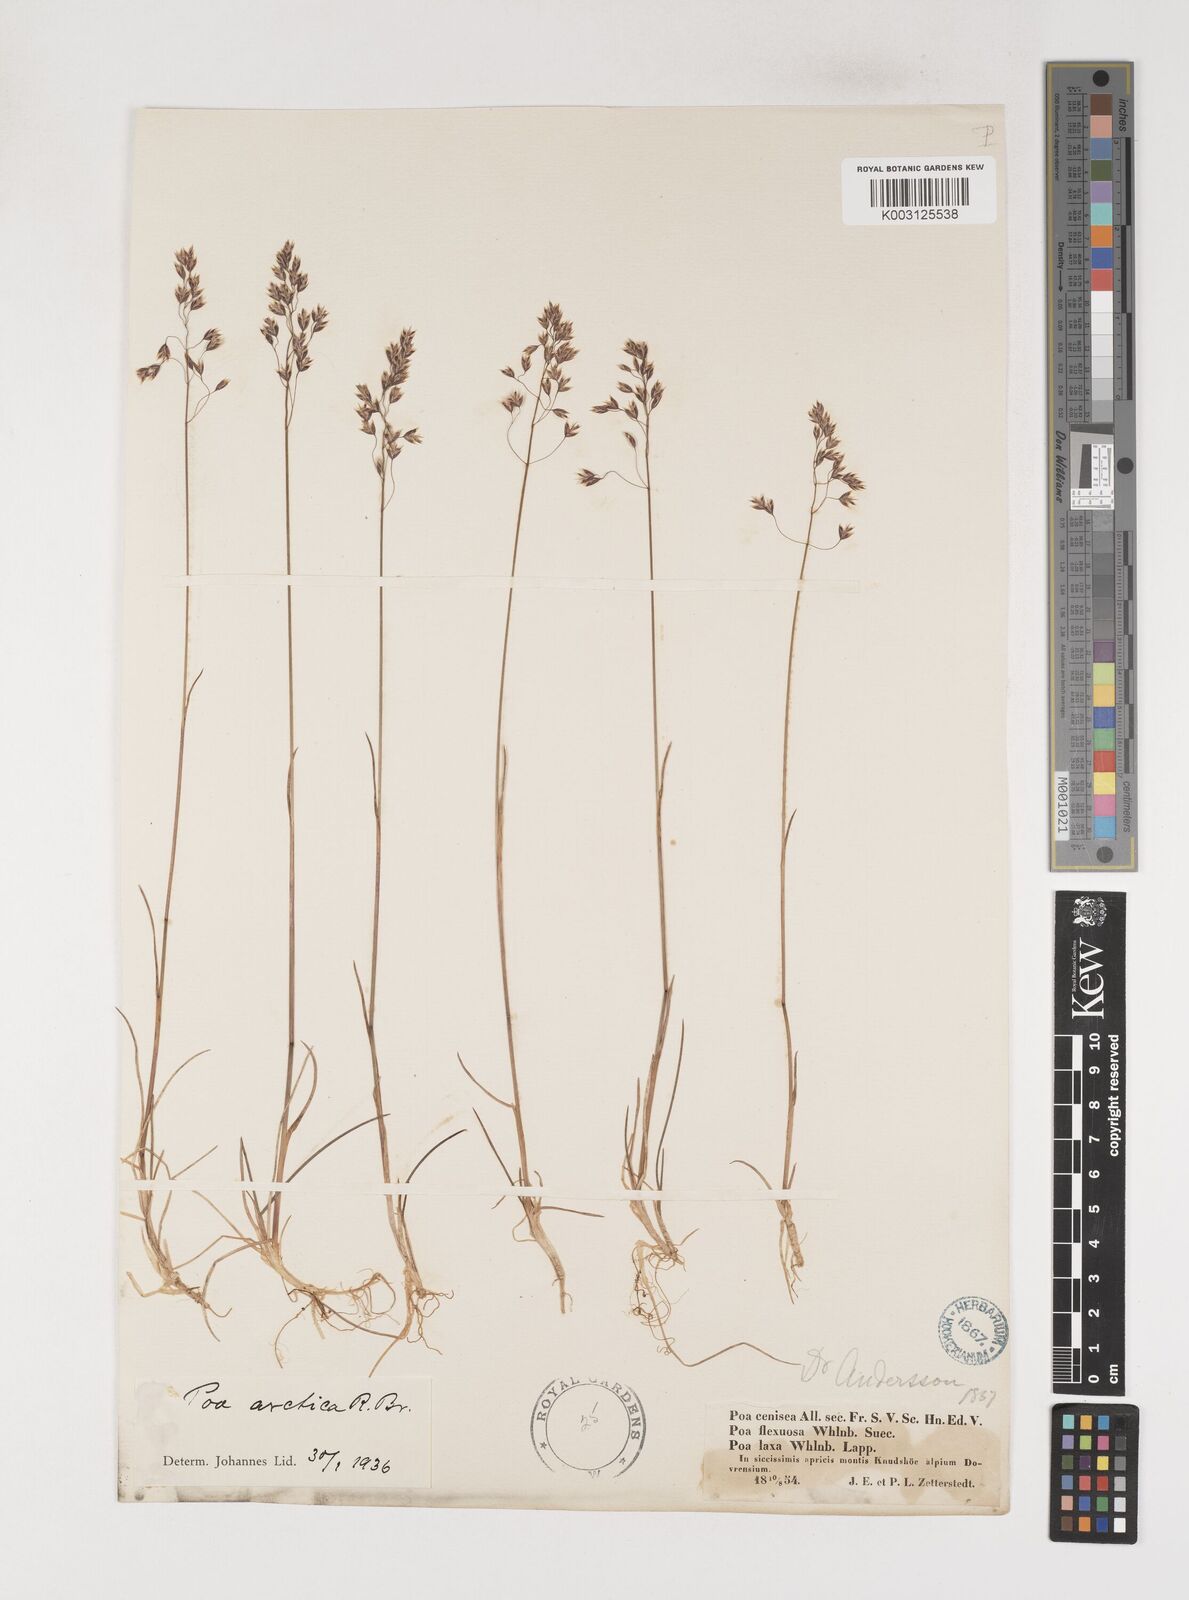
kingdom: Plantae
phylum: Tracheophyta
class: Liliopsida
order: Poales
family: Poaceae
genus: Poa
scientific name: Poa arctica
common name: Arctic bluegrass
